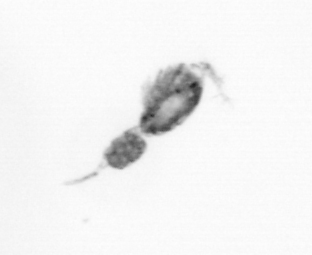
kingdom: Animalia
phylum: Arthropoda
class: Copepoda
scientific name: Copepoda
